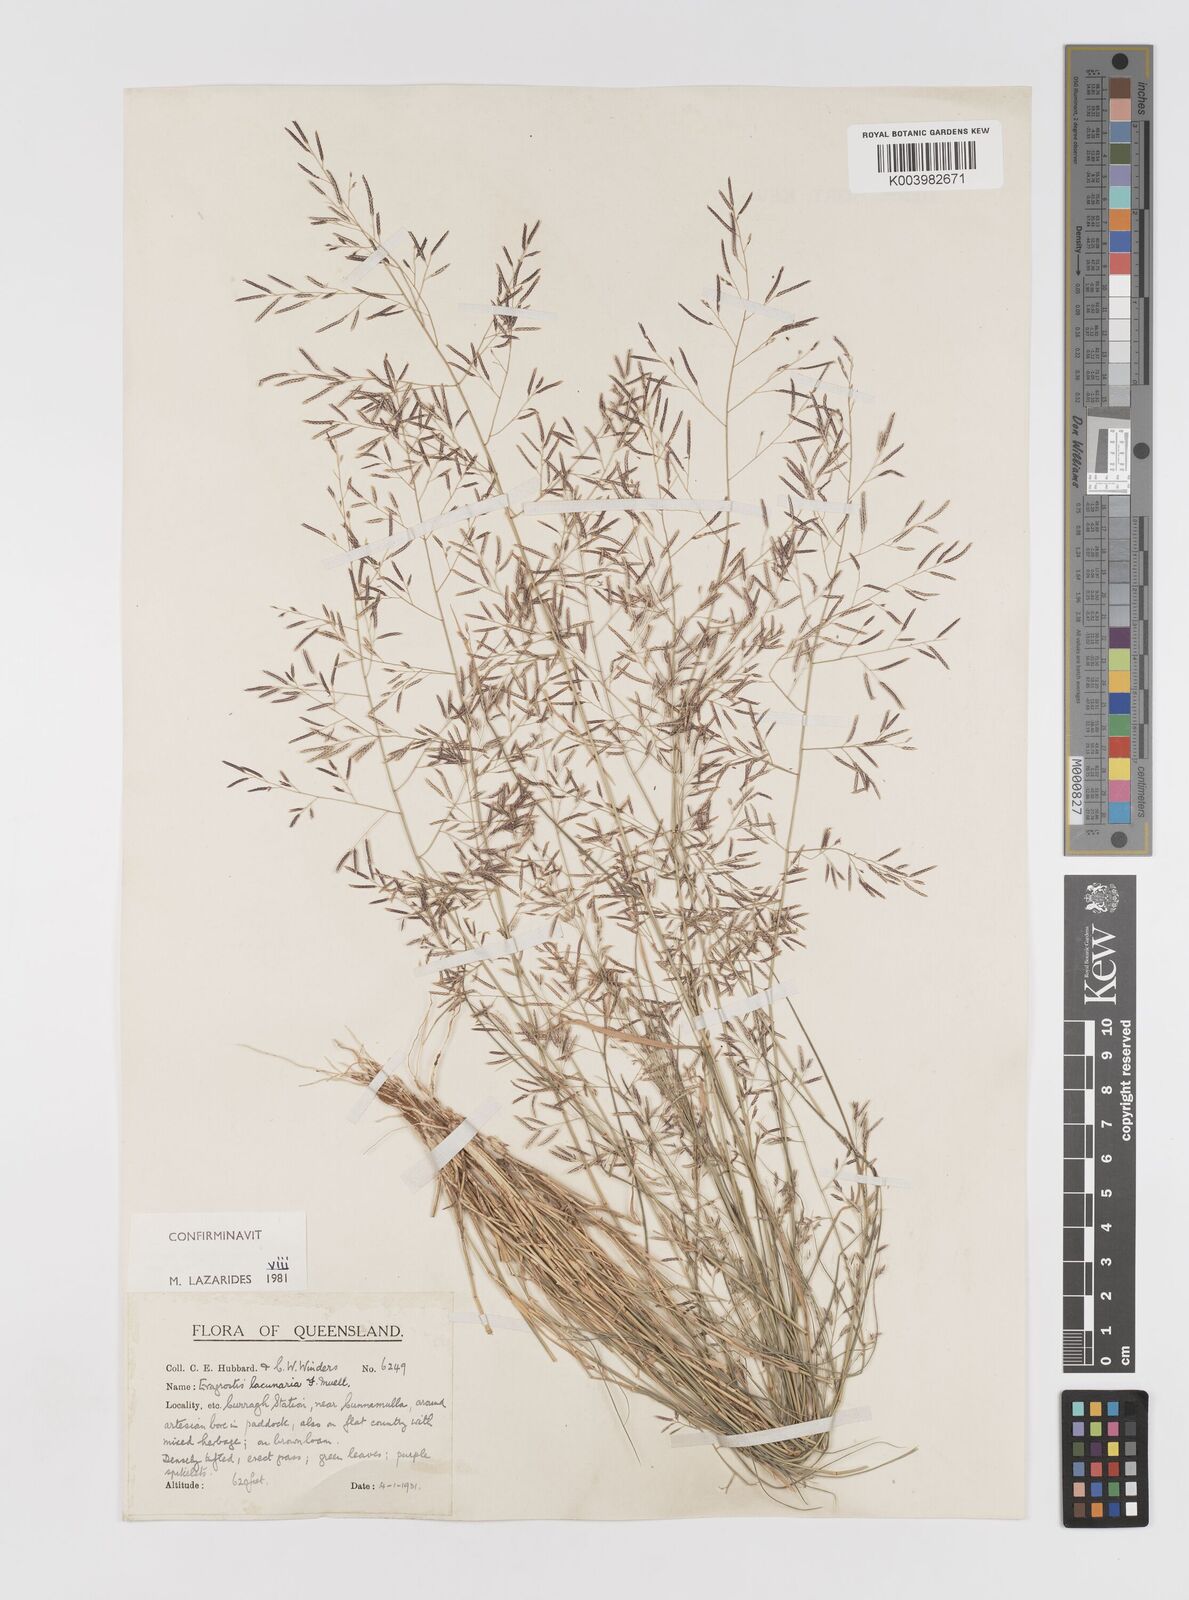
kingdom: Plantae
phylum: Tracheophyta
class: Liliopsida
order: Poales
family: Poaceae
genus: Eragrostis
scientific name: Eragrostis lacunaria
